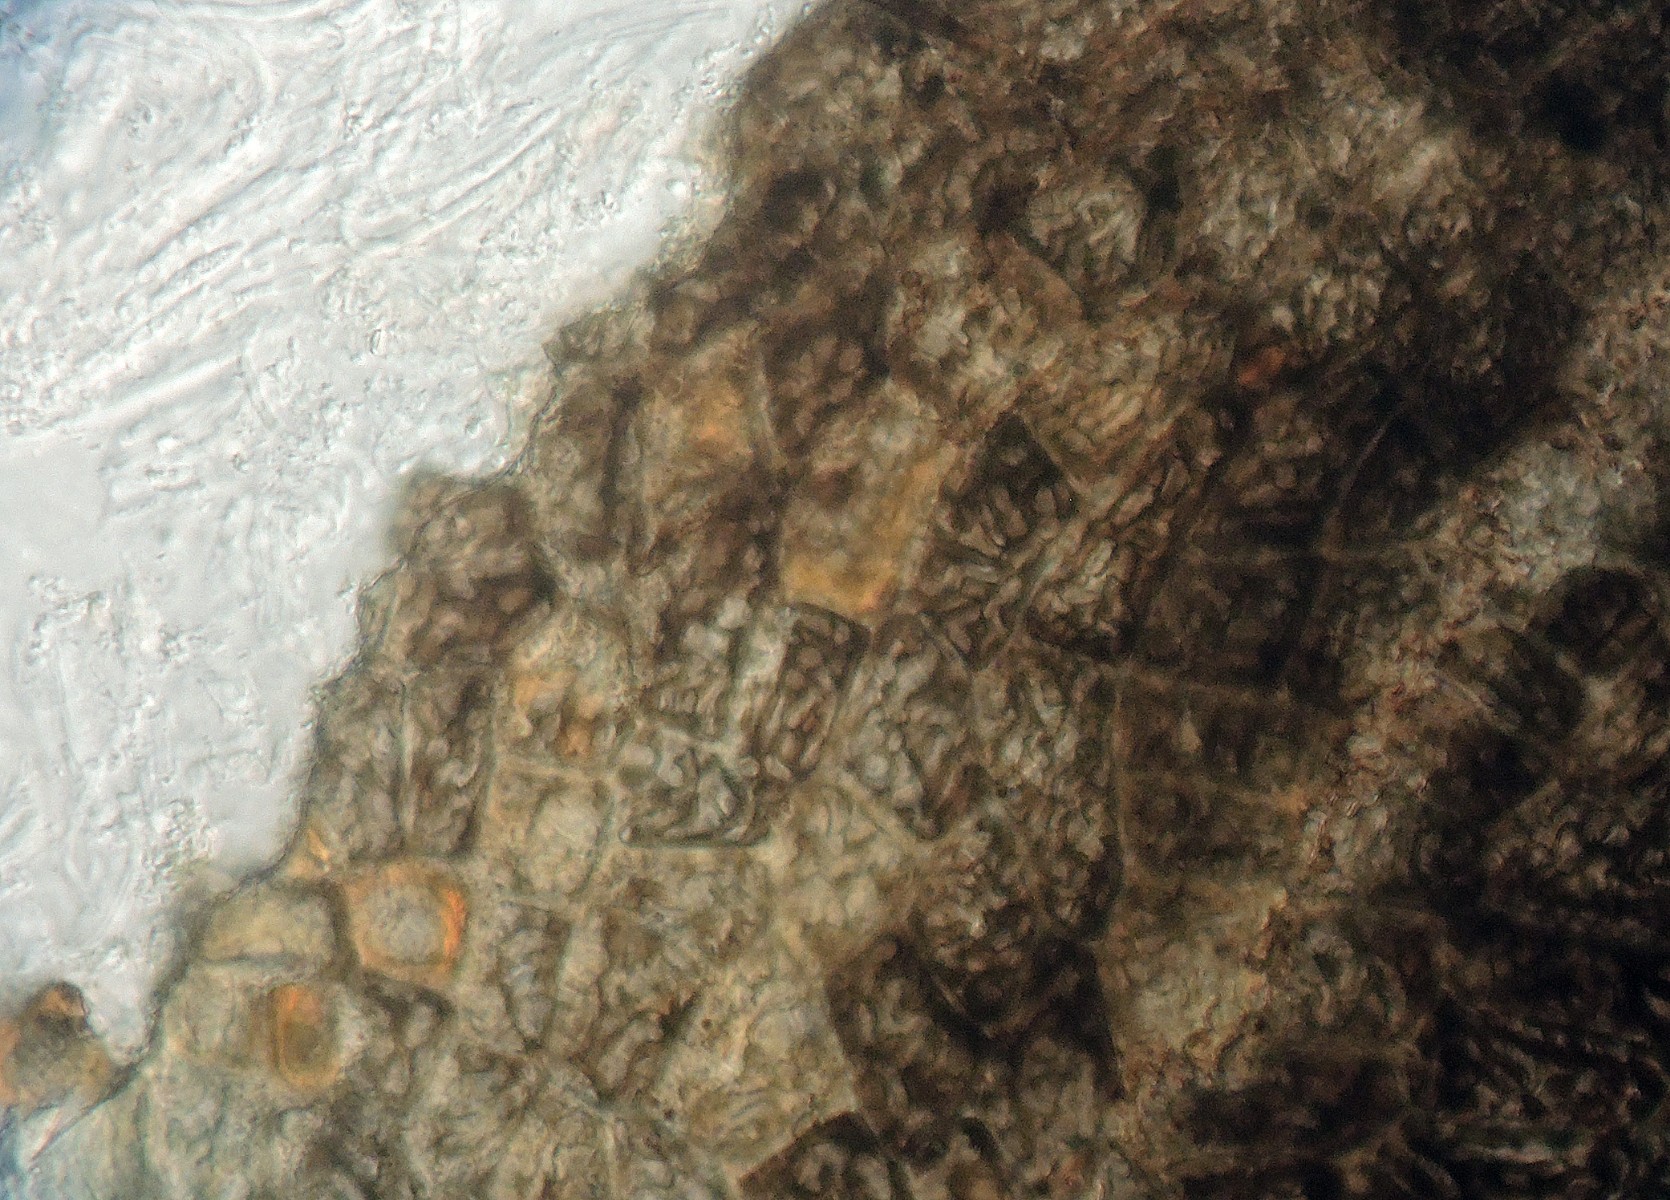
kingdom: Fungi
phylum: Ascomycota
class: Leotiomycetes
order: Rhytismatales
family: Rhytismataceae
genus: Coccomyces
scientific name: Coccomyces dentatus
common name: lille tandskive
